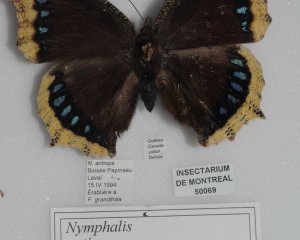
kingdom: Animalia
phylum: Arthropoda
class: Insecta
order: Lepidoptera
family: Nymphalidae
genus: Nymphalis
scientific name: Nymphalis antiopa
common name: Mourning Cloak
